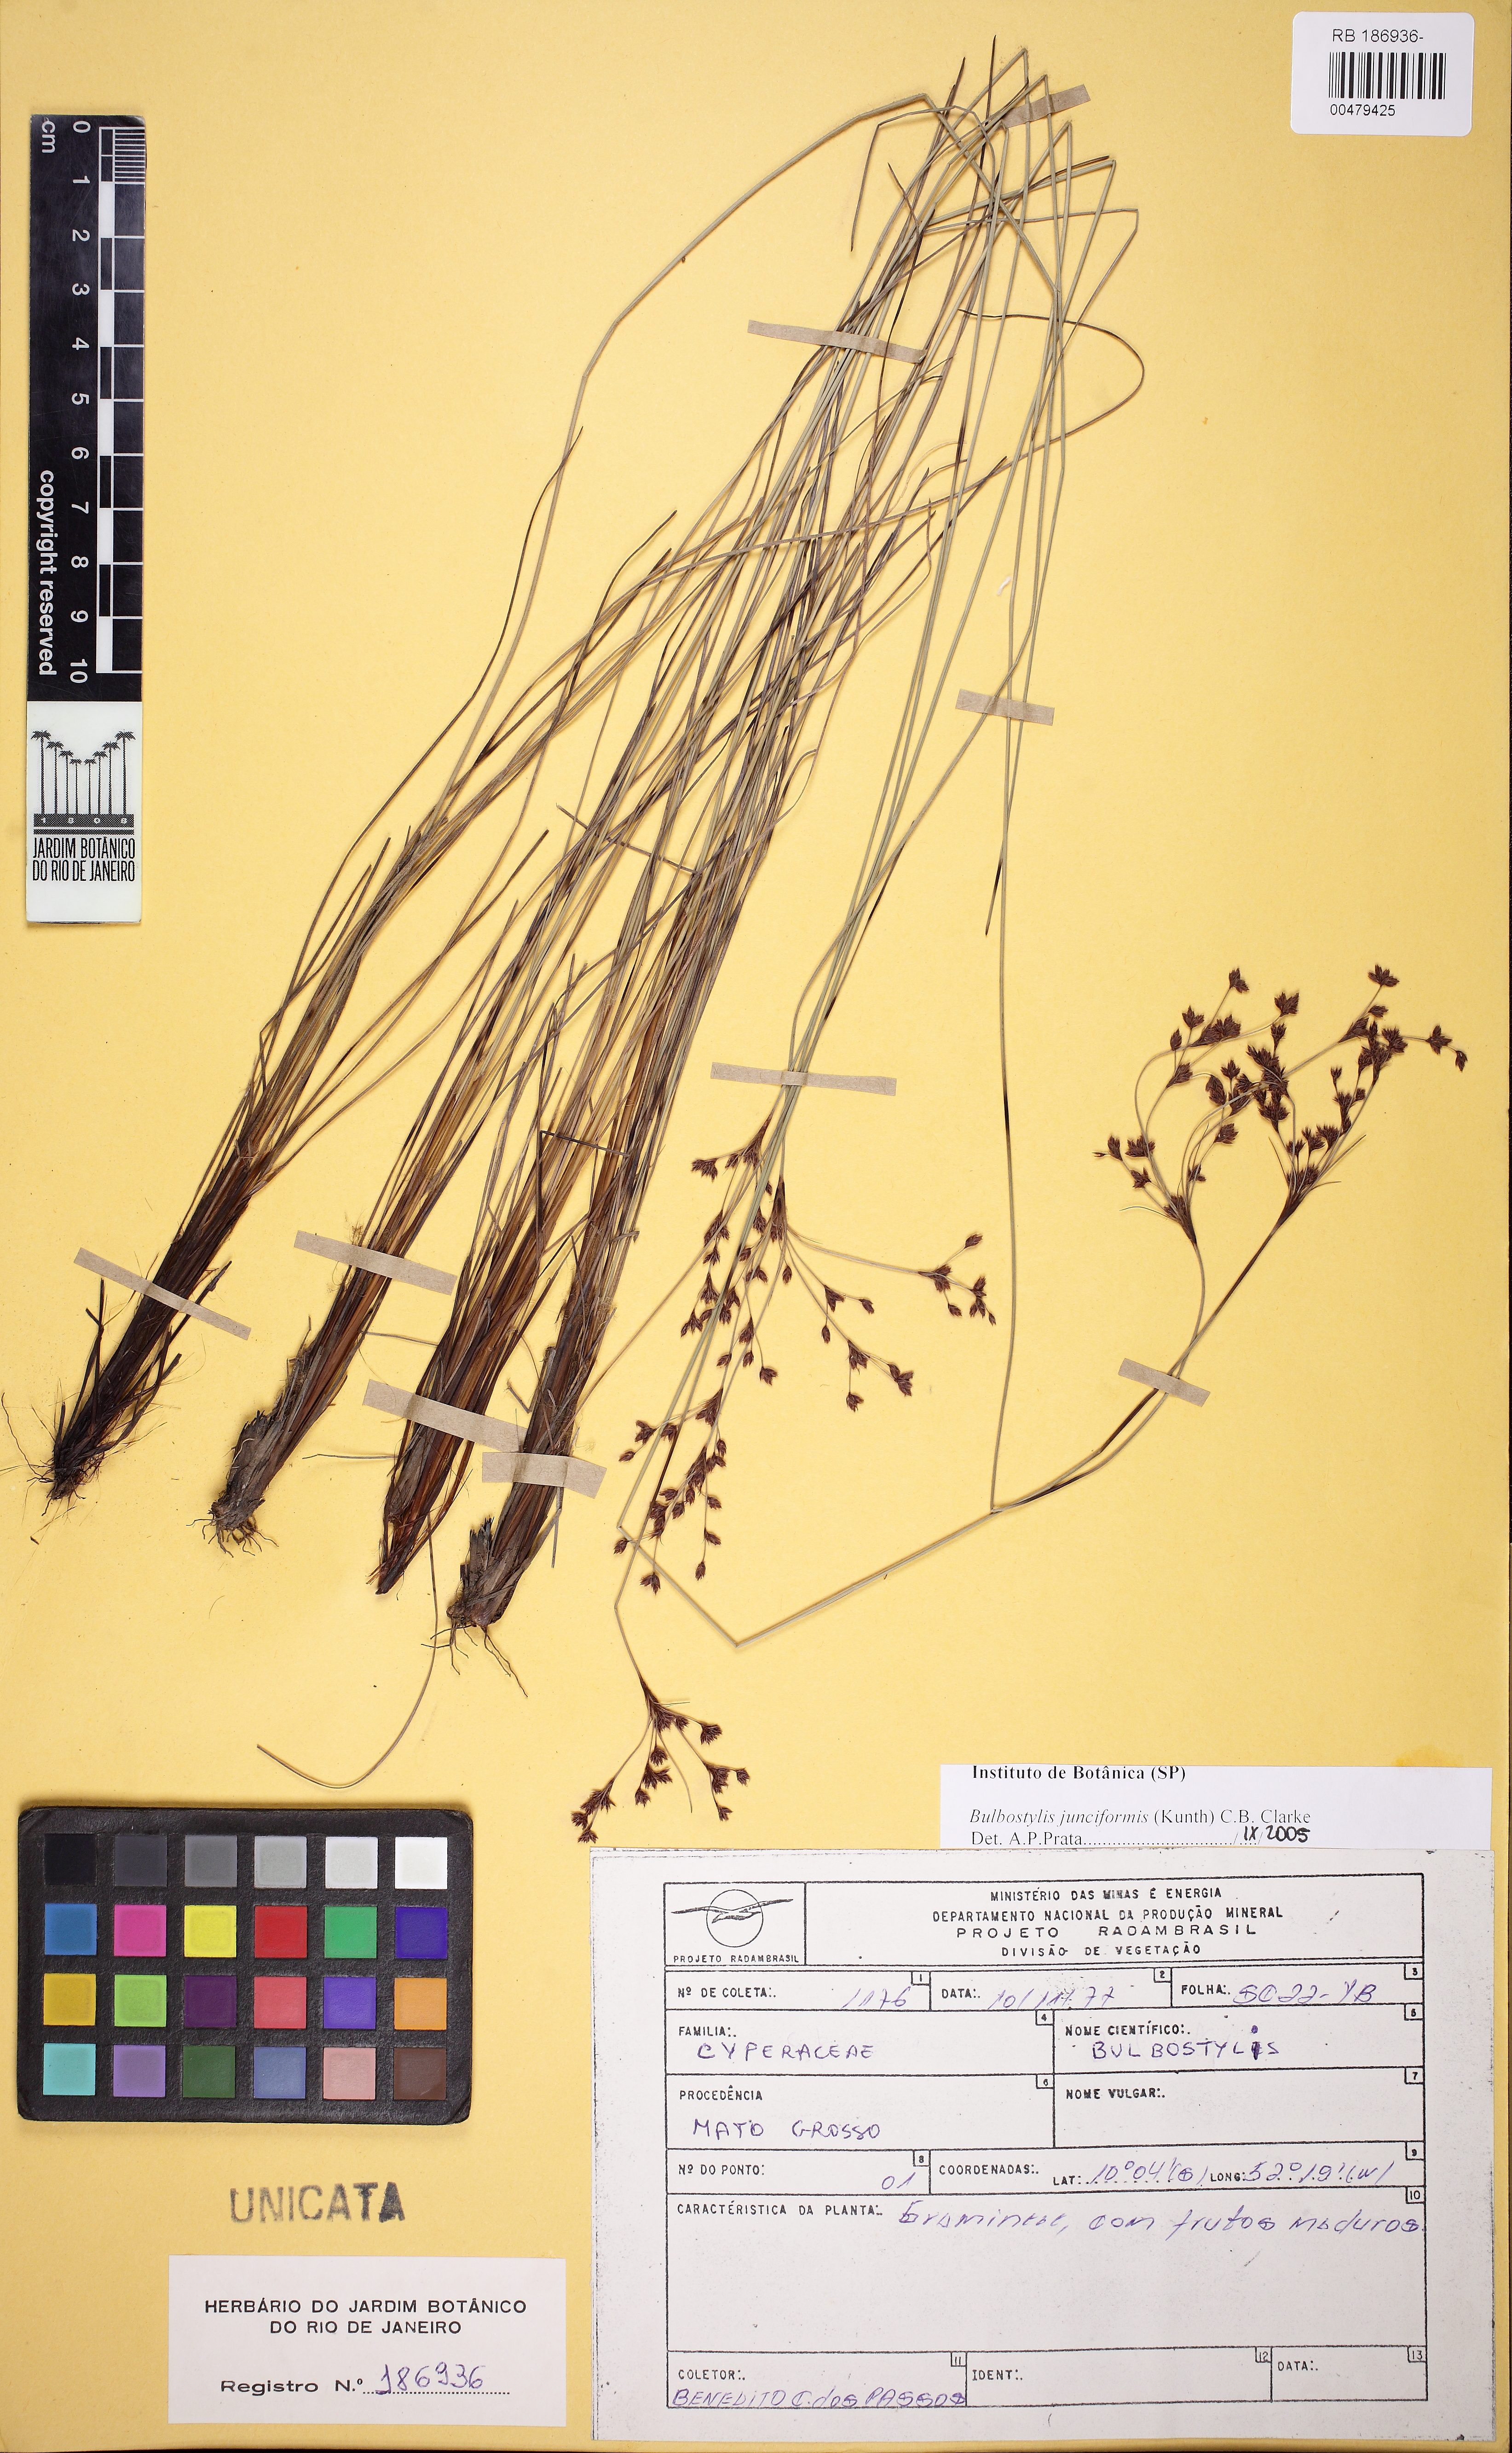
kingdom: Plantae
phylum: Tracheophyta
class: Liliopsida
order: Poales
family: Cyperaceae
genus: Bulbostylis
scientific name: Bulbostylis junciformis
